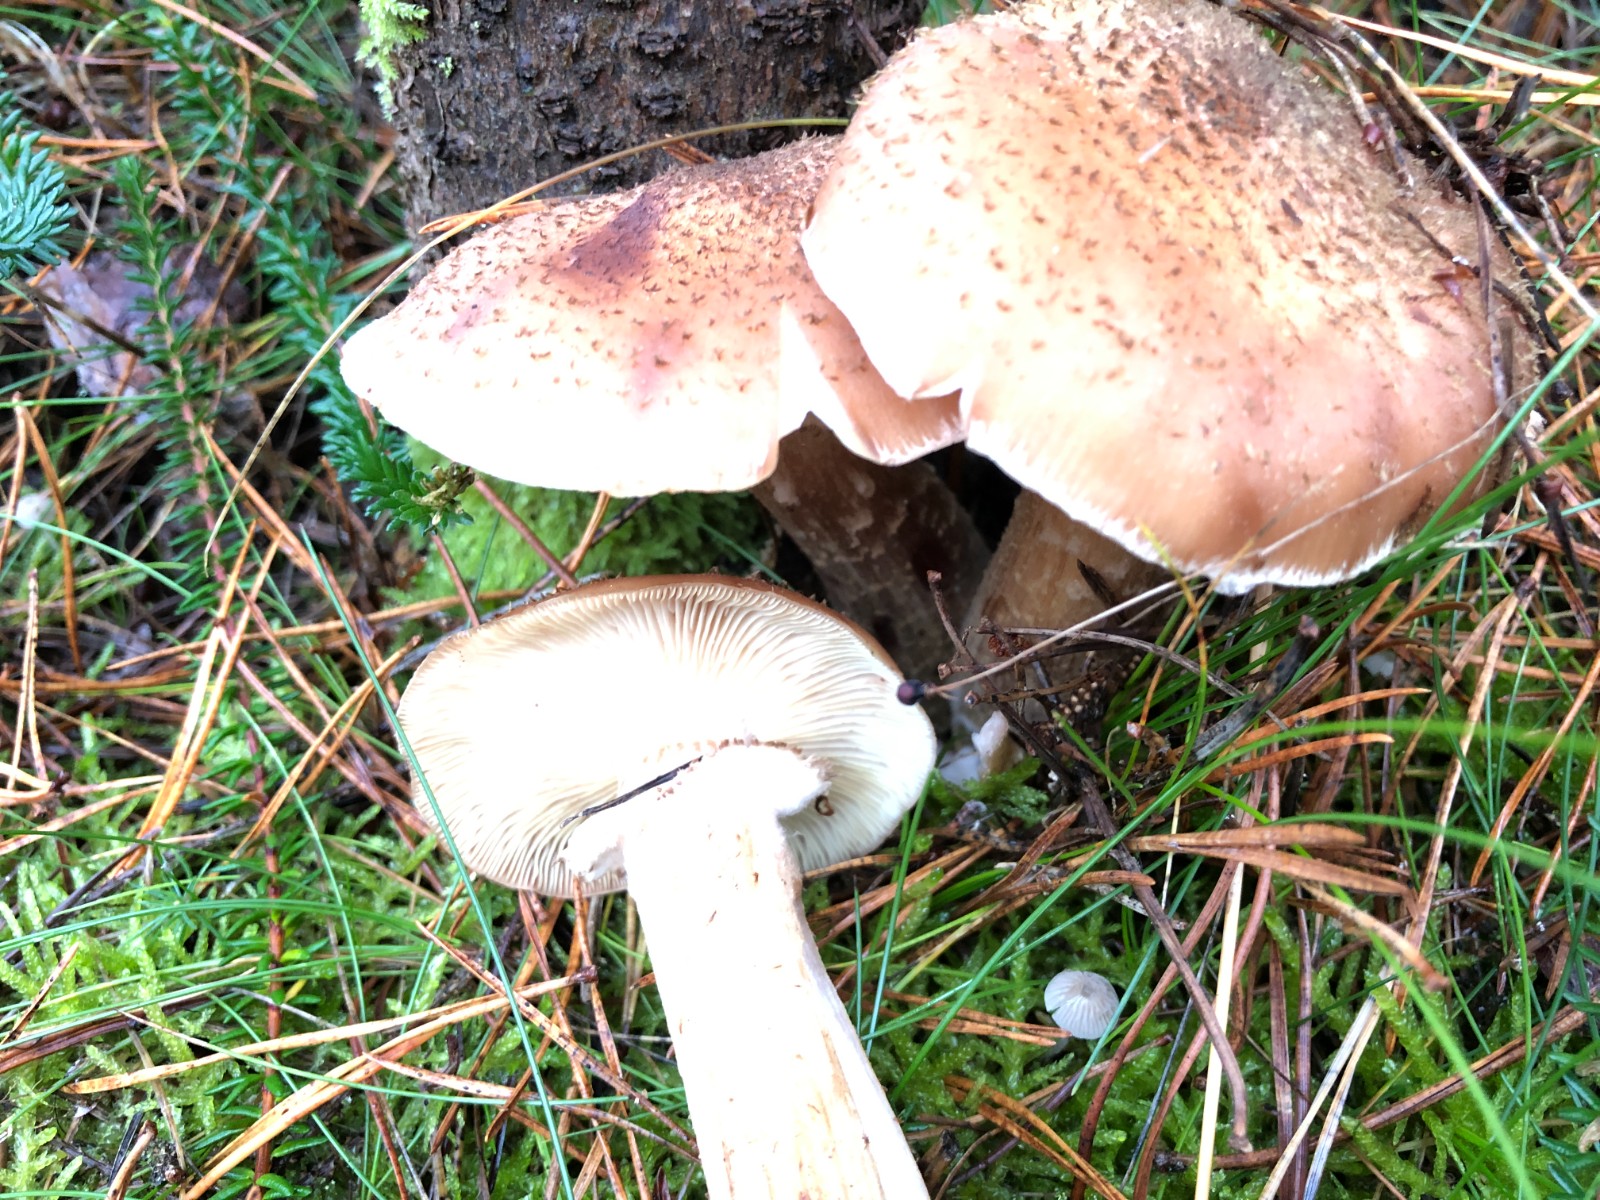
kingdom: Fungi
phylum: Basidiomycota
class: Agaricomycetes
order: Agaricales
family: Physalacriaceae
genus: Armillaria
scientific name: Armillaria ostoyae
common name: mørk honningsvamp
